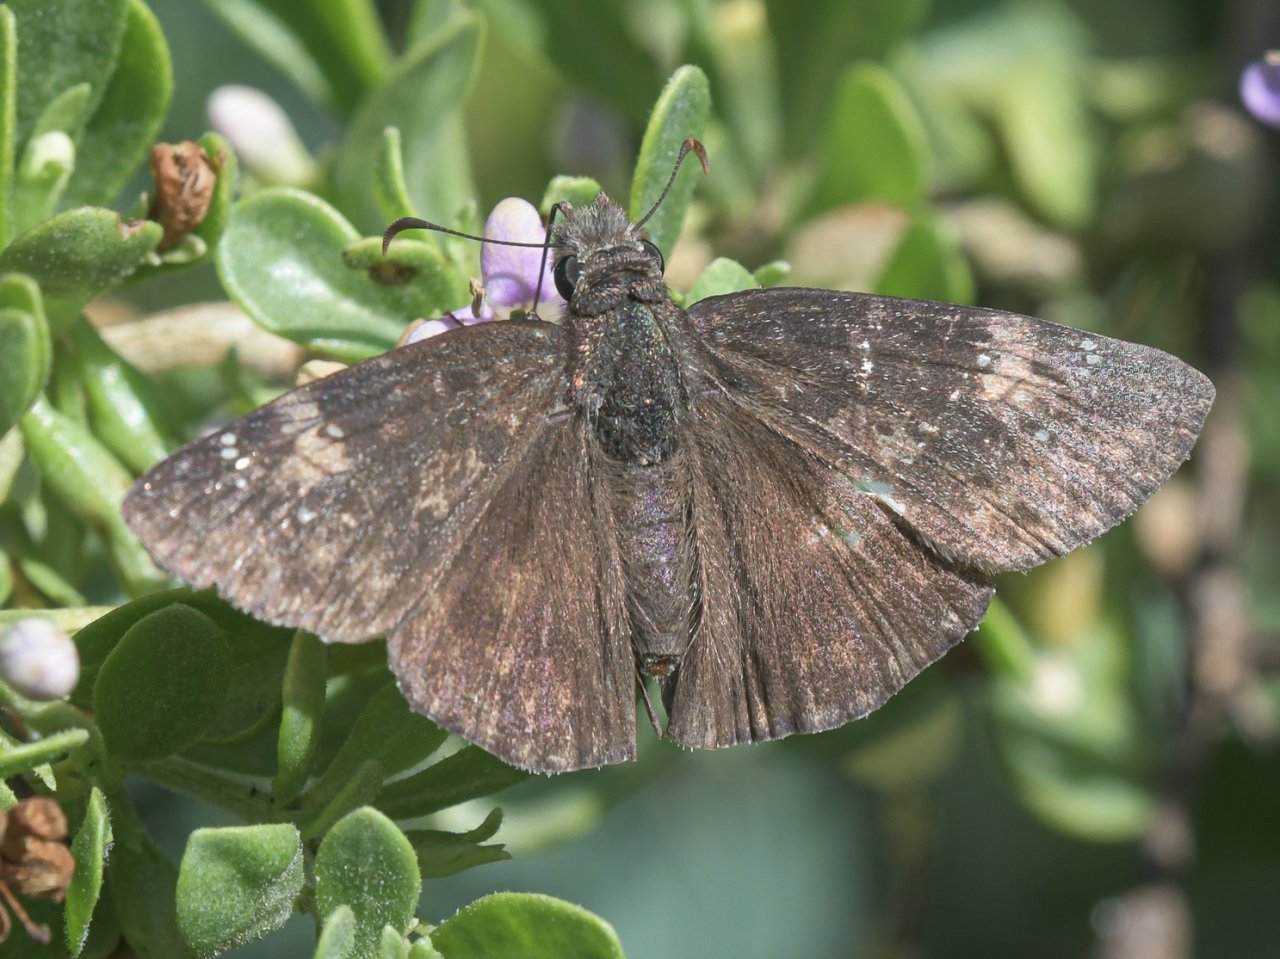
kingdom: Animalia
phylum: Arthropoda
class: Insecta
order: Lepidoptera
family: Hesperiidae
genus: Chiomara
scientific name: Chiomara asychis
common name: White-patched Skipper
